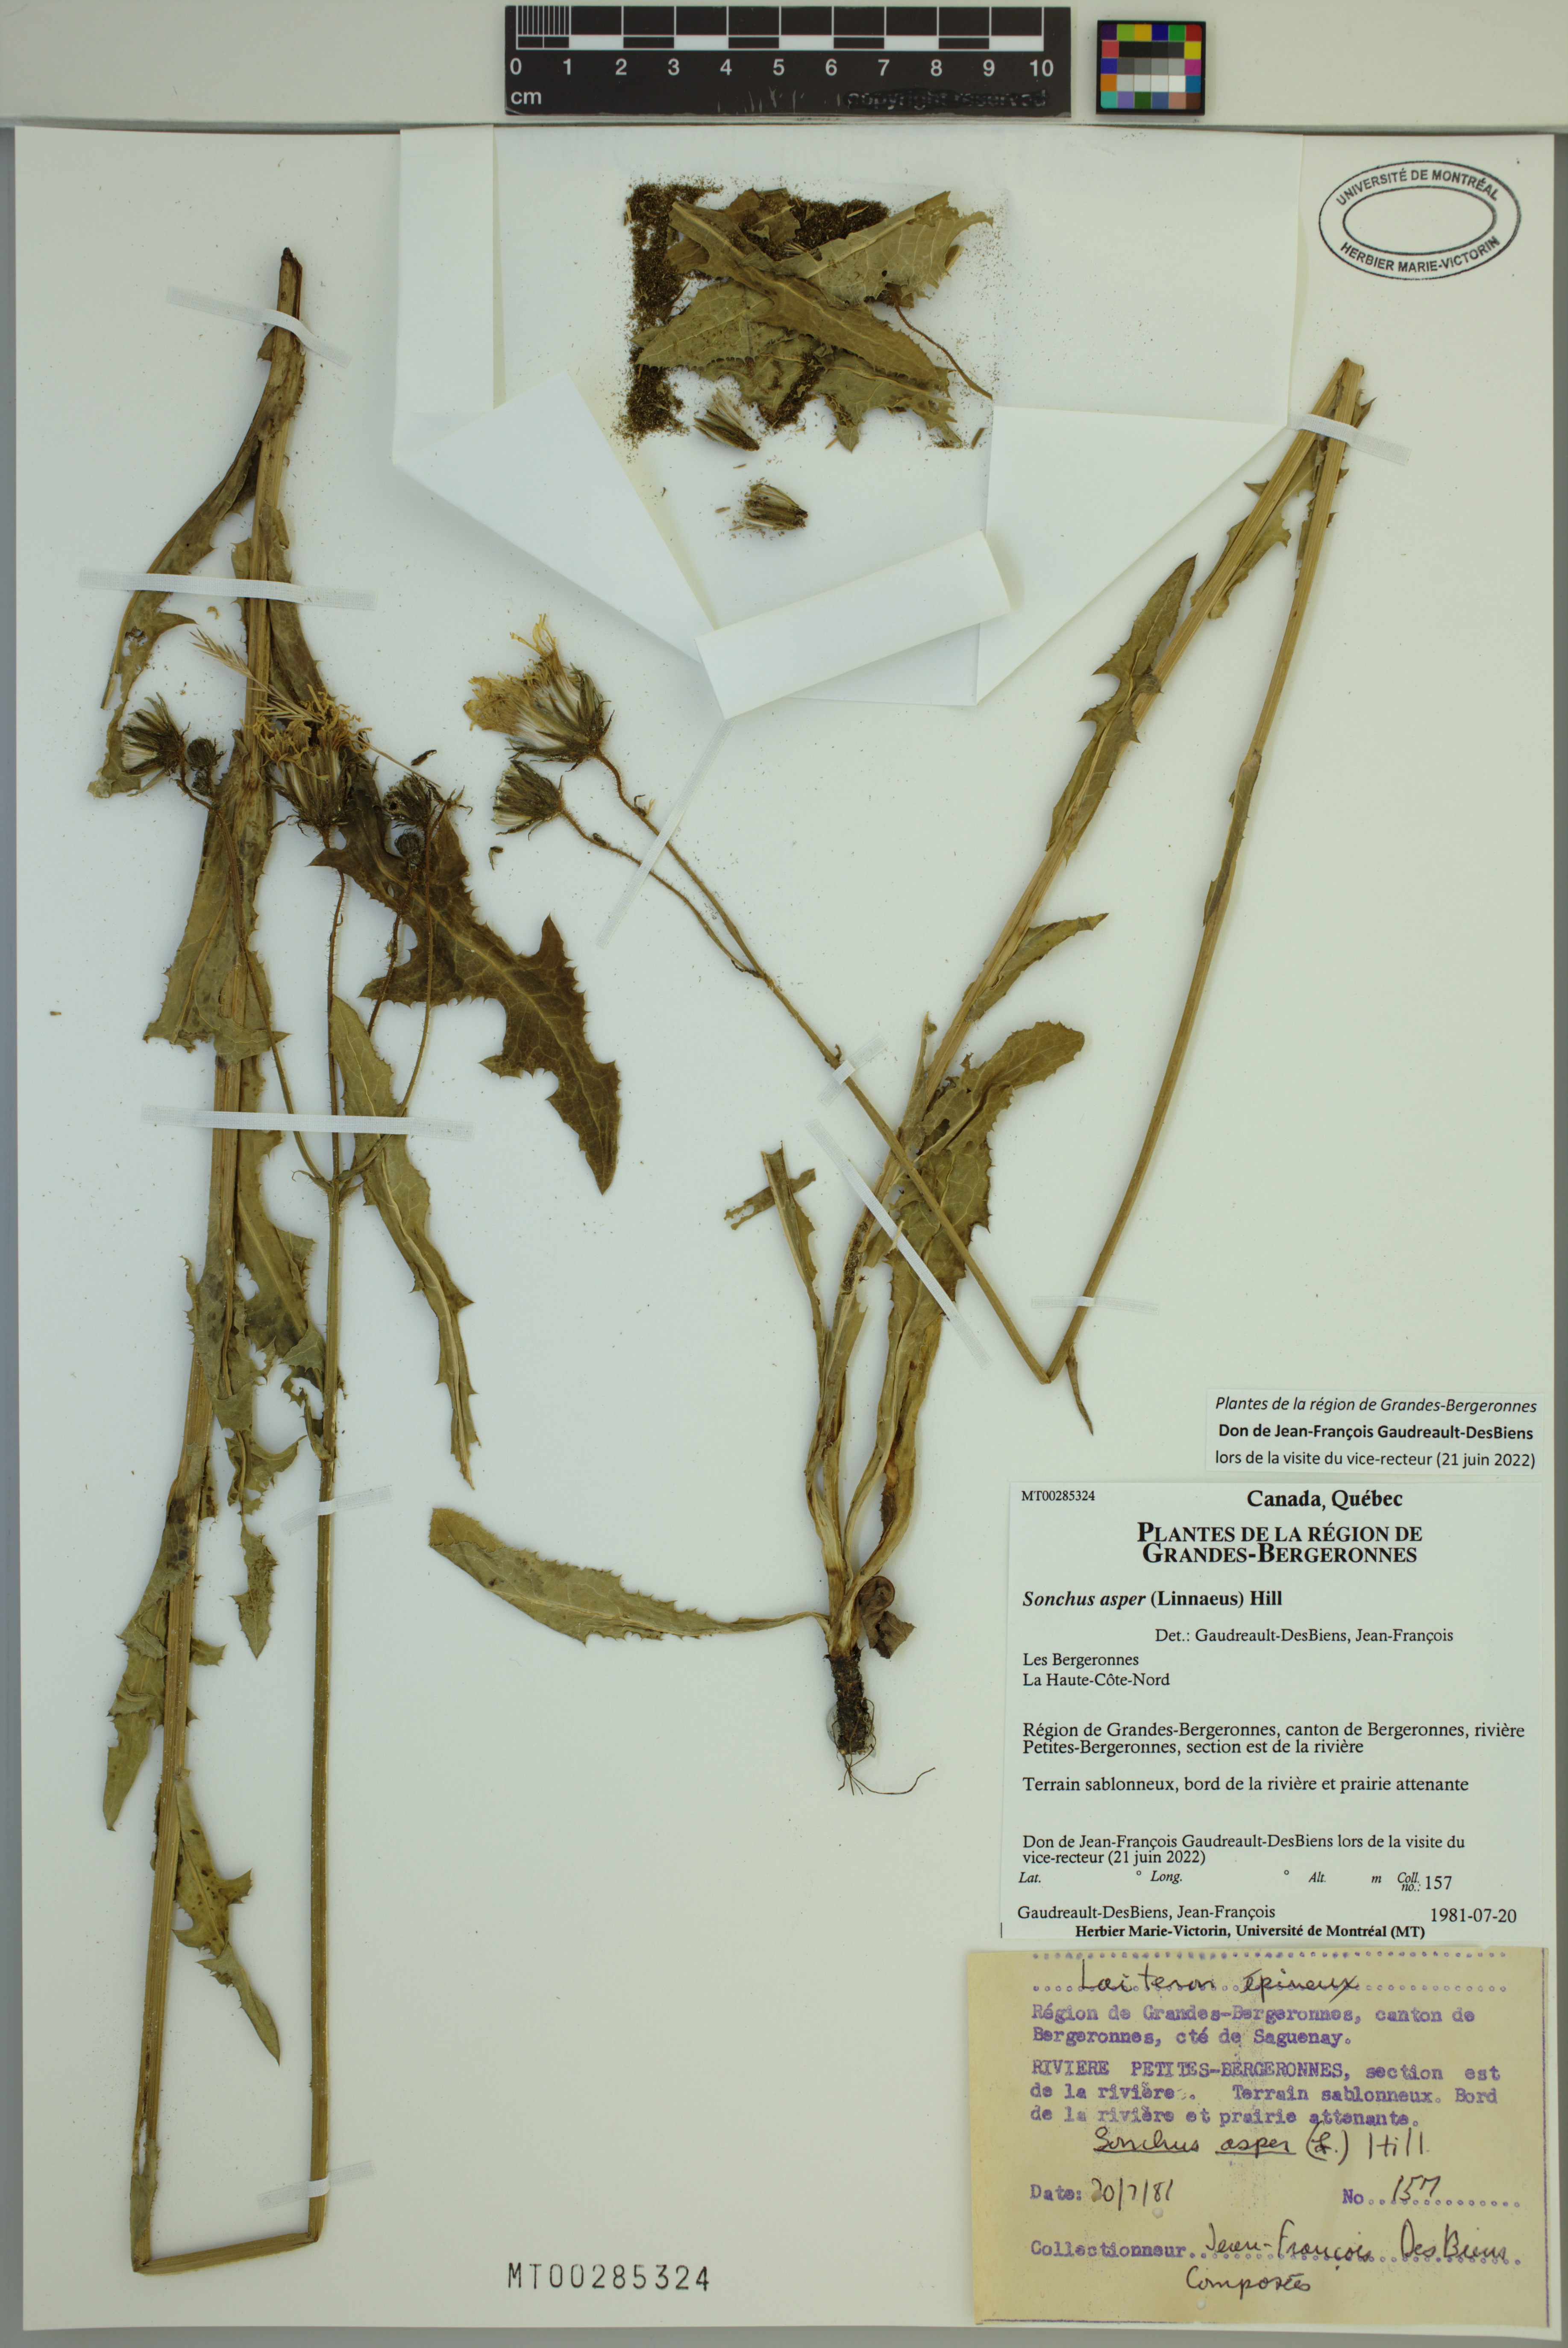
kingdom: Plantae
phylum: Tracheophyta
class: Magnoliopsida
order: Asterales
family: Asteraceae
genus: Sonchus
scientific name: Sonchus asper
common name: Prickly sow-thistle
